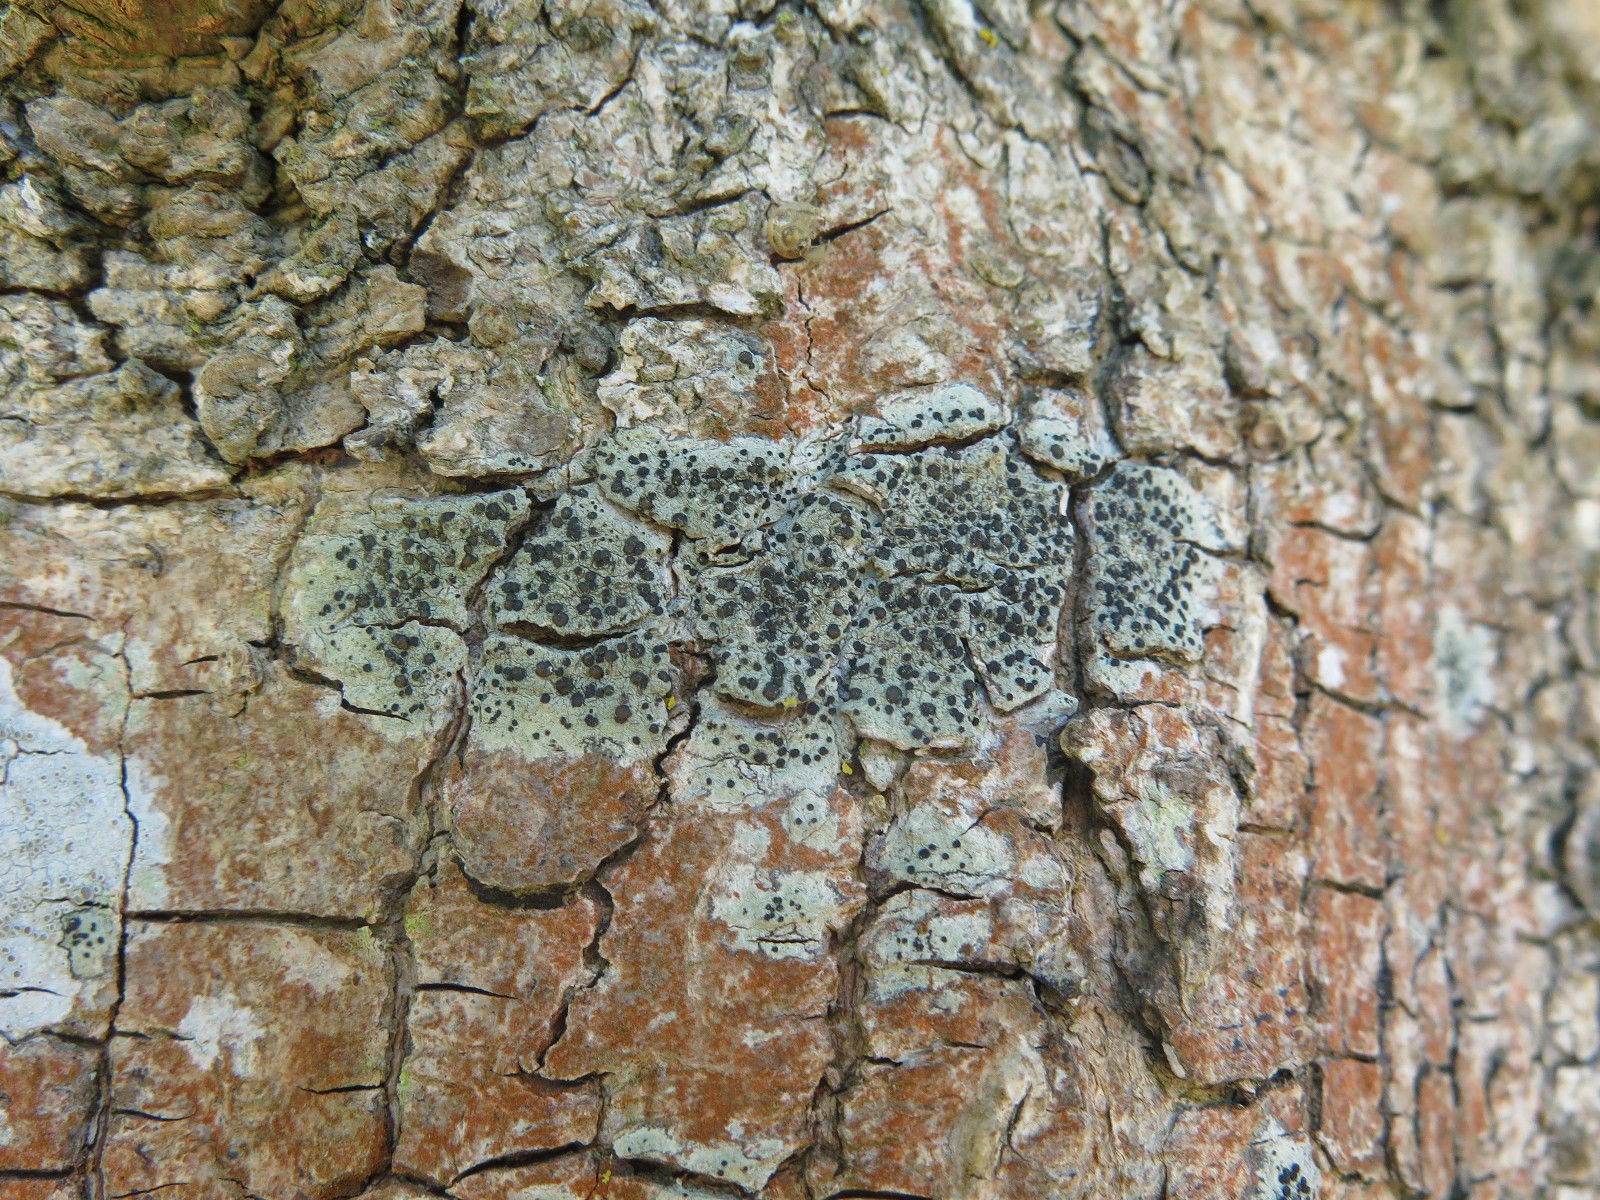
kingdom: Fungi
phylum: Ascomycota
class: Lecanoromycetes
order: Lecanorales
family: Lecanoraceae
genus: Lecidella
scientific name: Lecidella euphorea
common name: vortet skivelav
